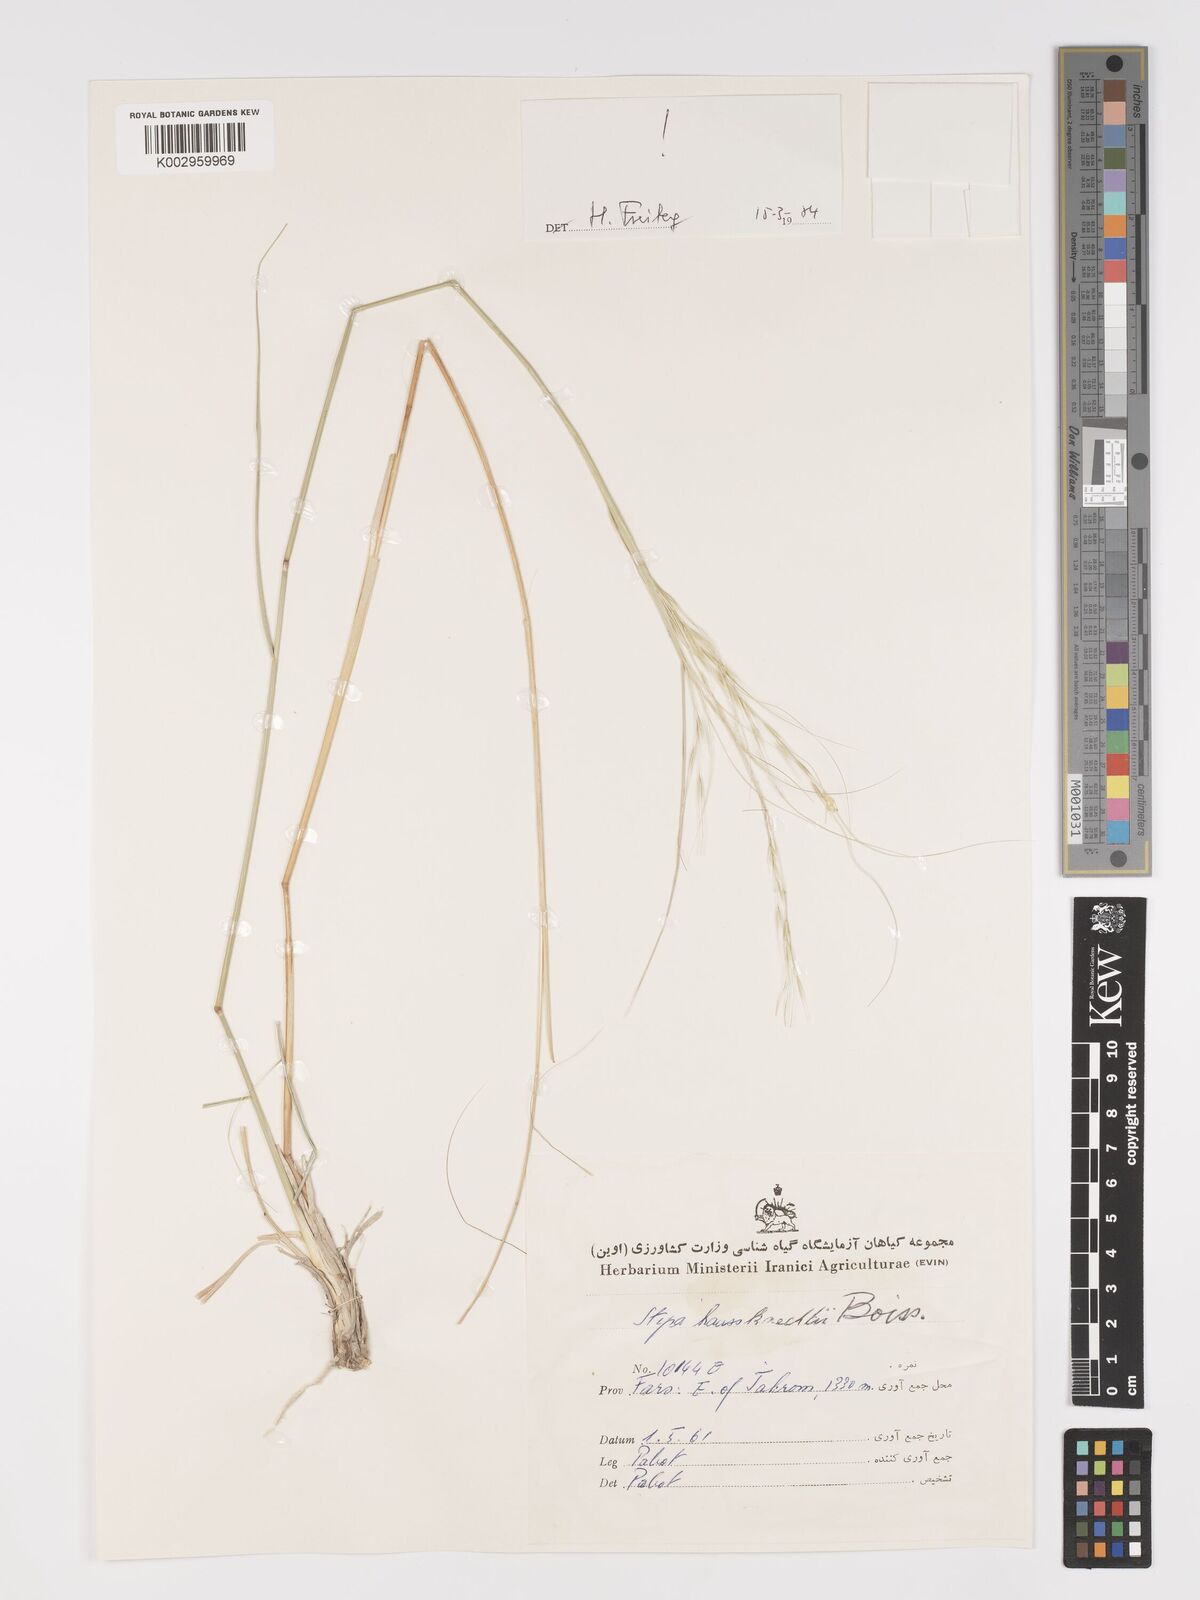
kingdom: Plantae
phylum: Tracheophyta
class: Liliopsida
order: Poales
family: Poaceae
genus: Achnatherum
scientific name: Achnatherum haussknechtii
